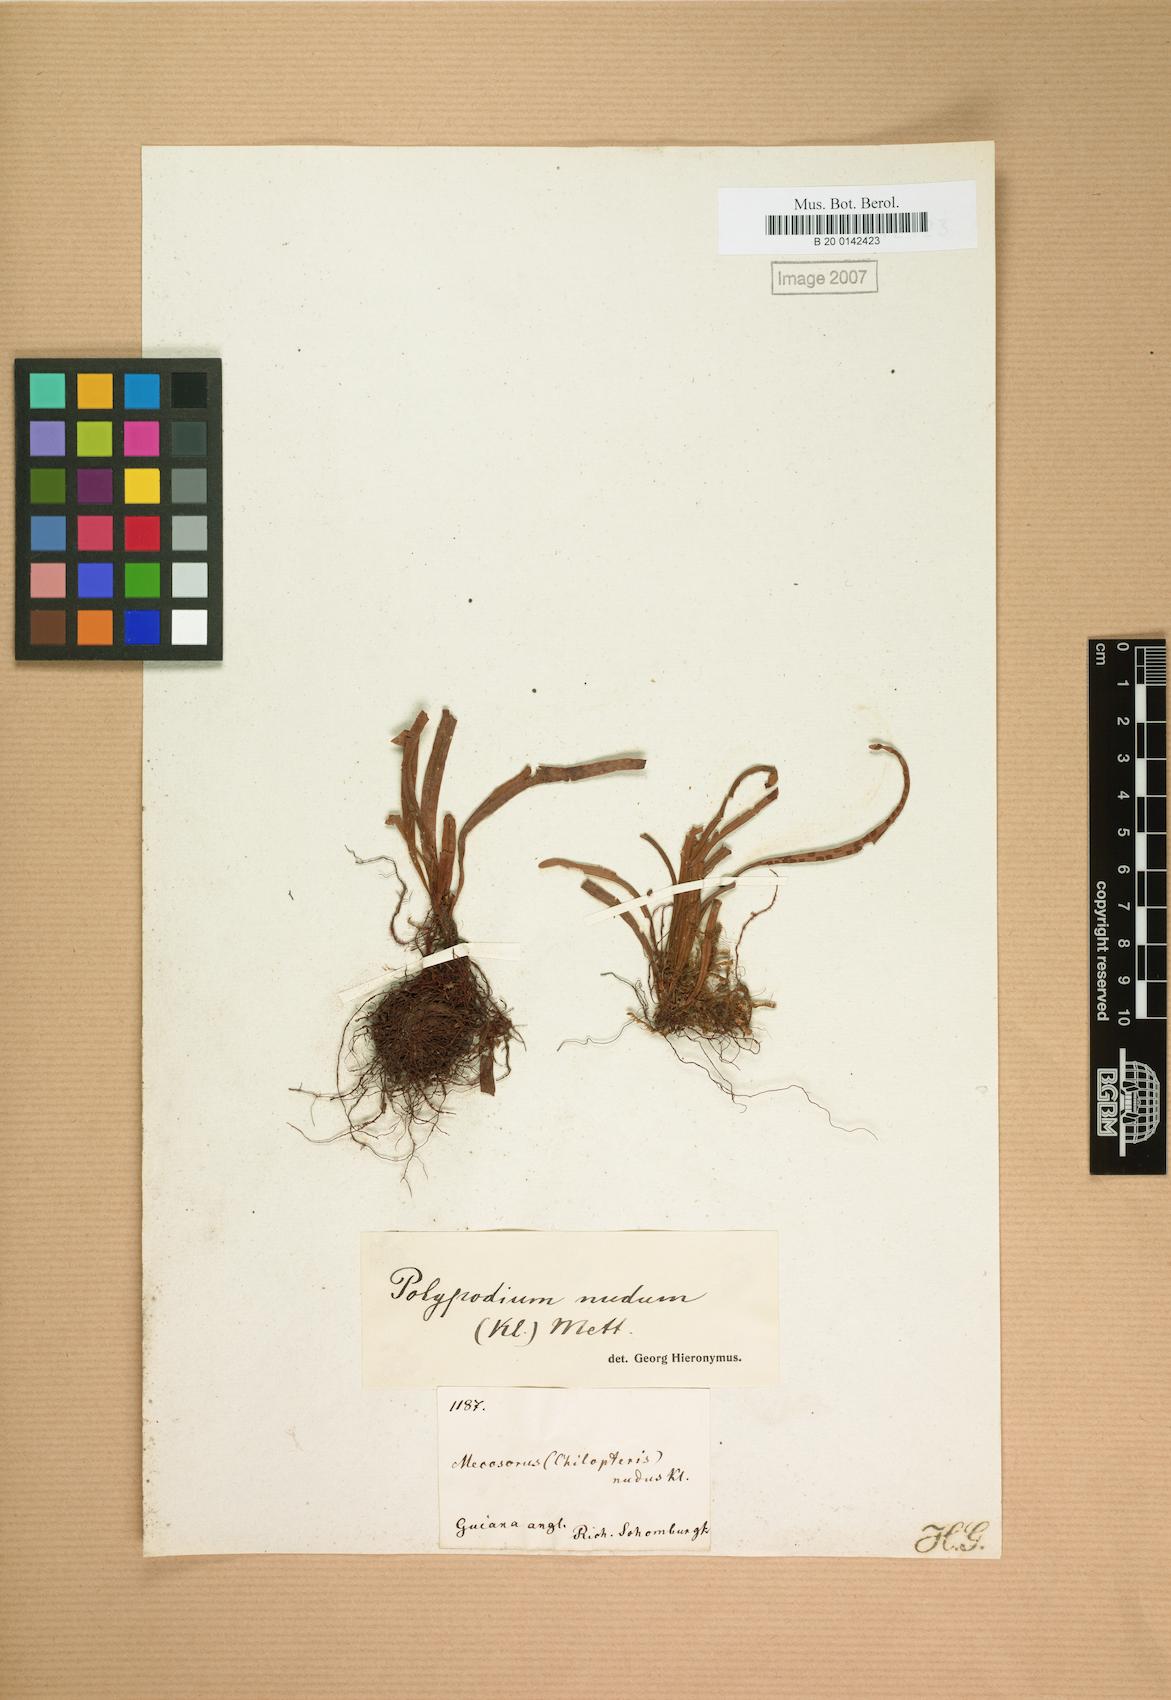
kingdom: Plantae
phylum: Tracheophyta
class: Polypodiopsida
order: Polypodiales
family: Polypodiaceae
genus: Lomaphlebia
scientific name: Lomaphlebia linearis
